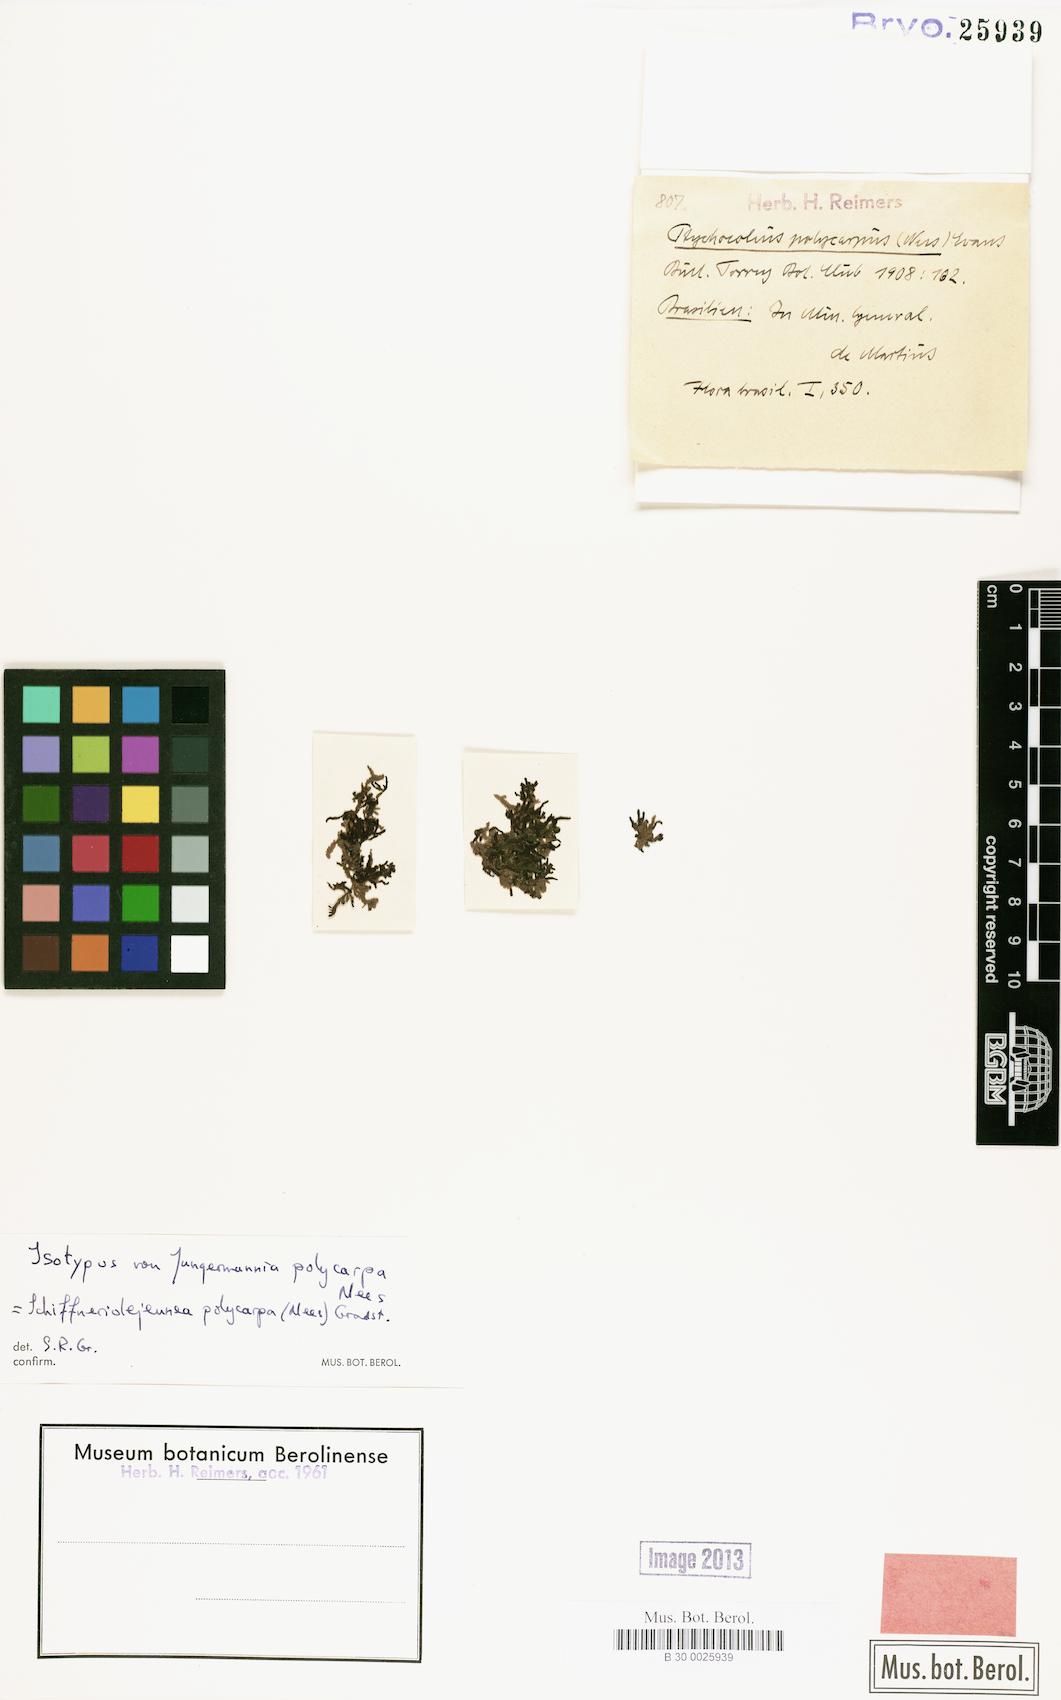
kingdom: Plantae
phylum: Marchantiophyta
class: Jungermanniopsida
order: Porellales
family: Lejeuneaceae
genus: Schiffneriolejeunea
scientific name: Schiffneriolejeunea polycarpa
